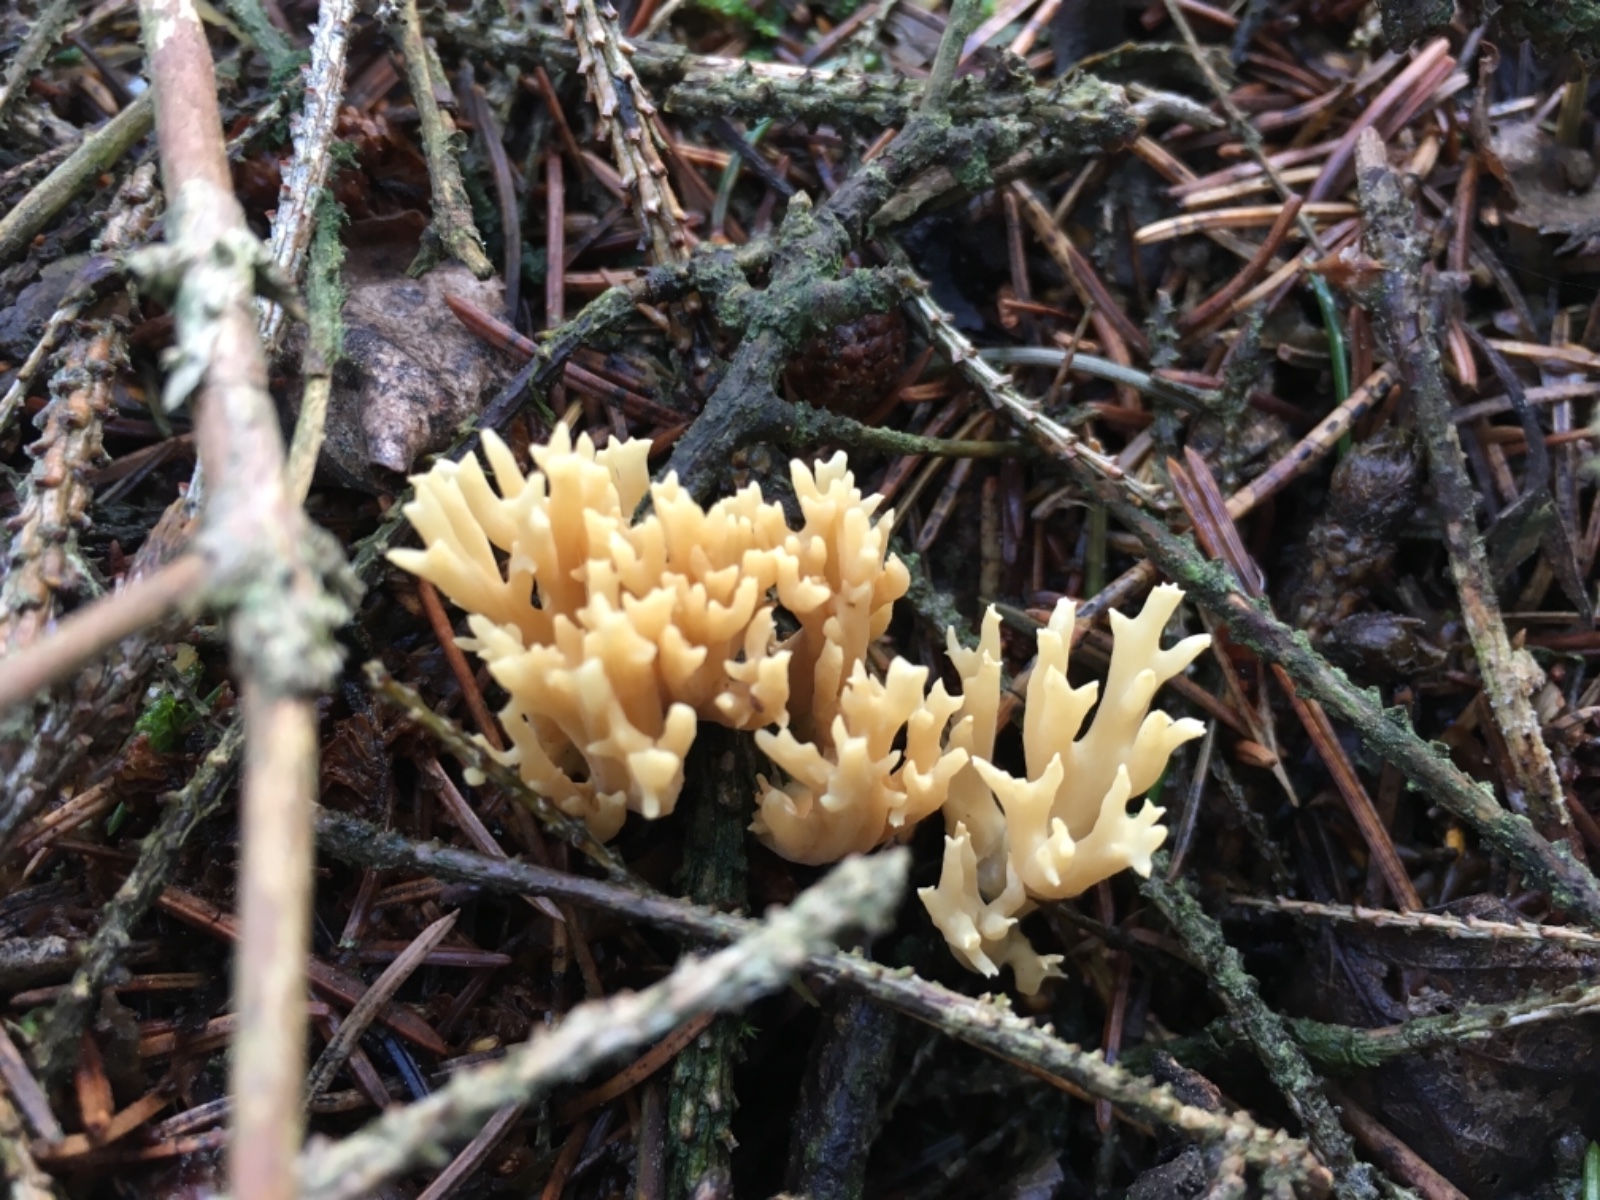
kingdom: Fungi
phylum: Basidiomycota
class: Agaricomycetes
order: Gomphales
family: Gomphaceae
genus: Phaeoclavulina
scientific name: Phaeoclavulina eumorpha
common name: gran-koralsvamp
